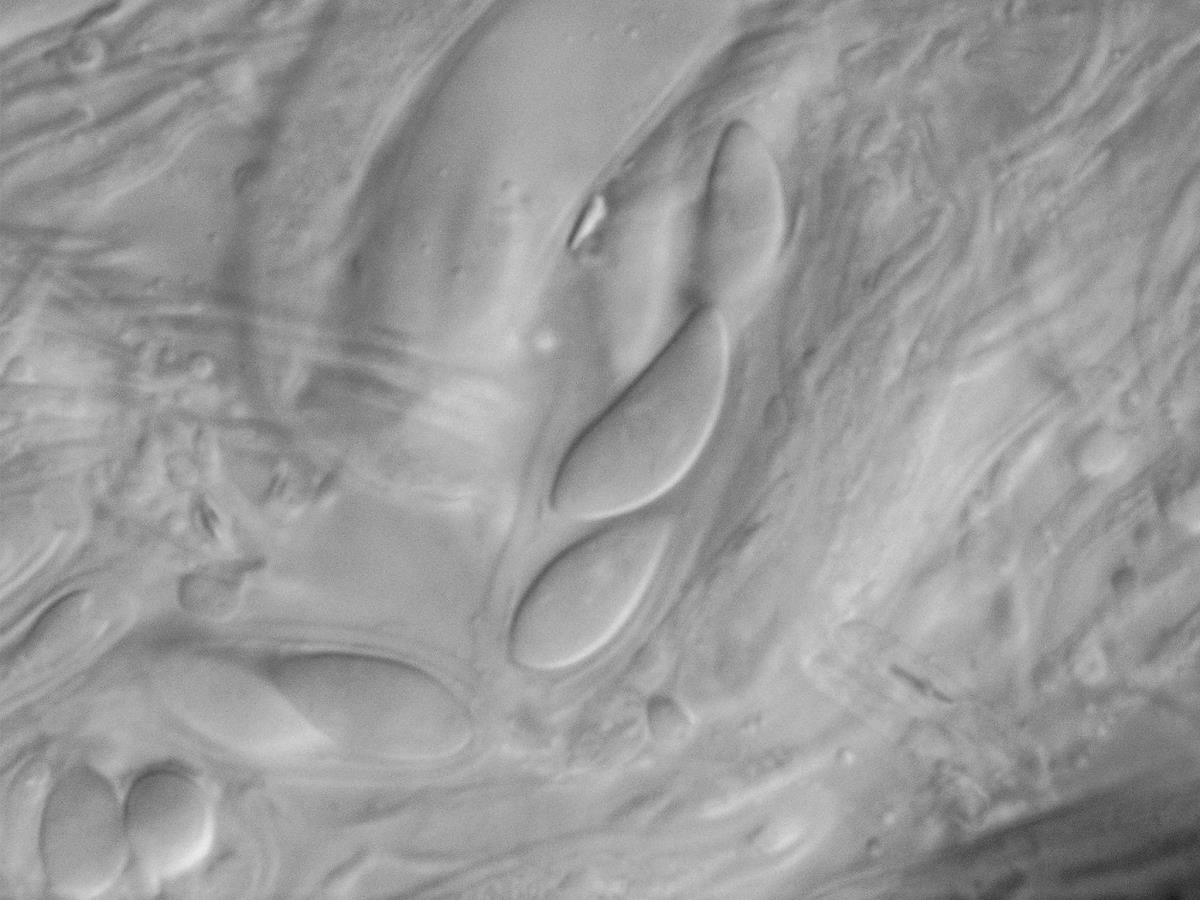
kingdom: Fungi
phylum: Ascomycota
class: Leotiomycetes
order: Helotiales
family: Chlorociboriaceae
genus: Chlorociboria
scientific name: Chlorociboria albohymenia
